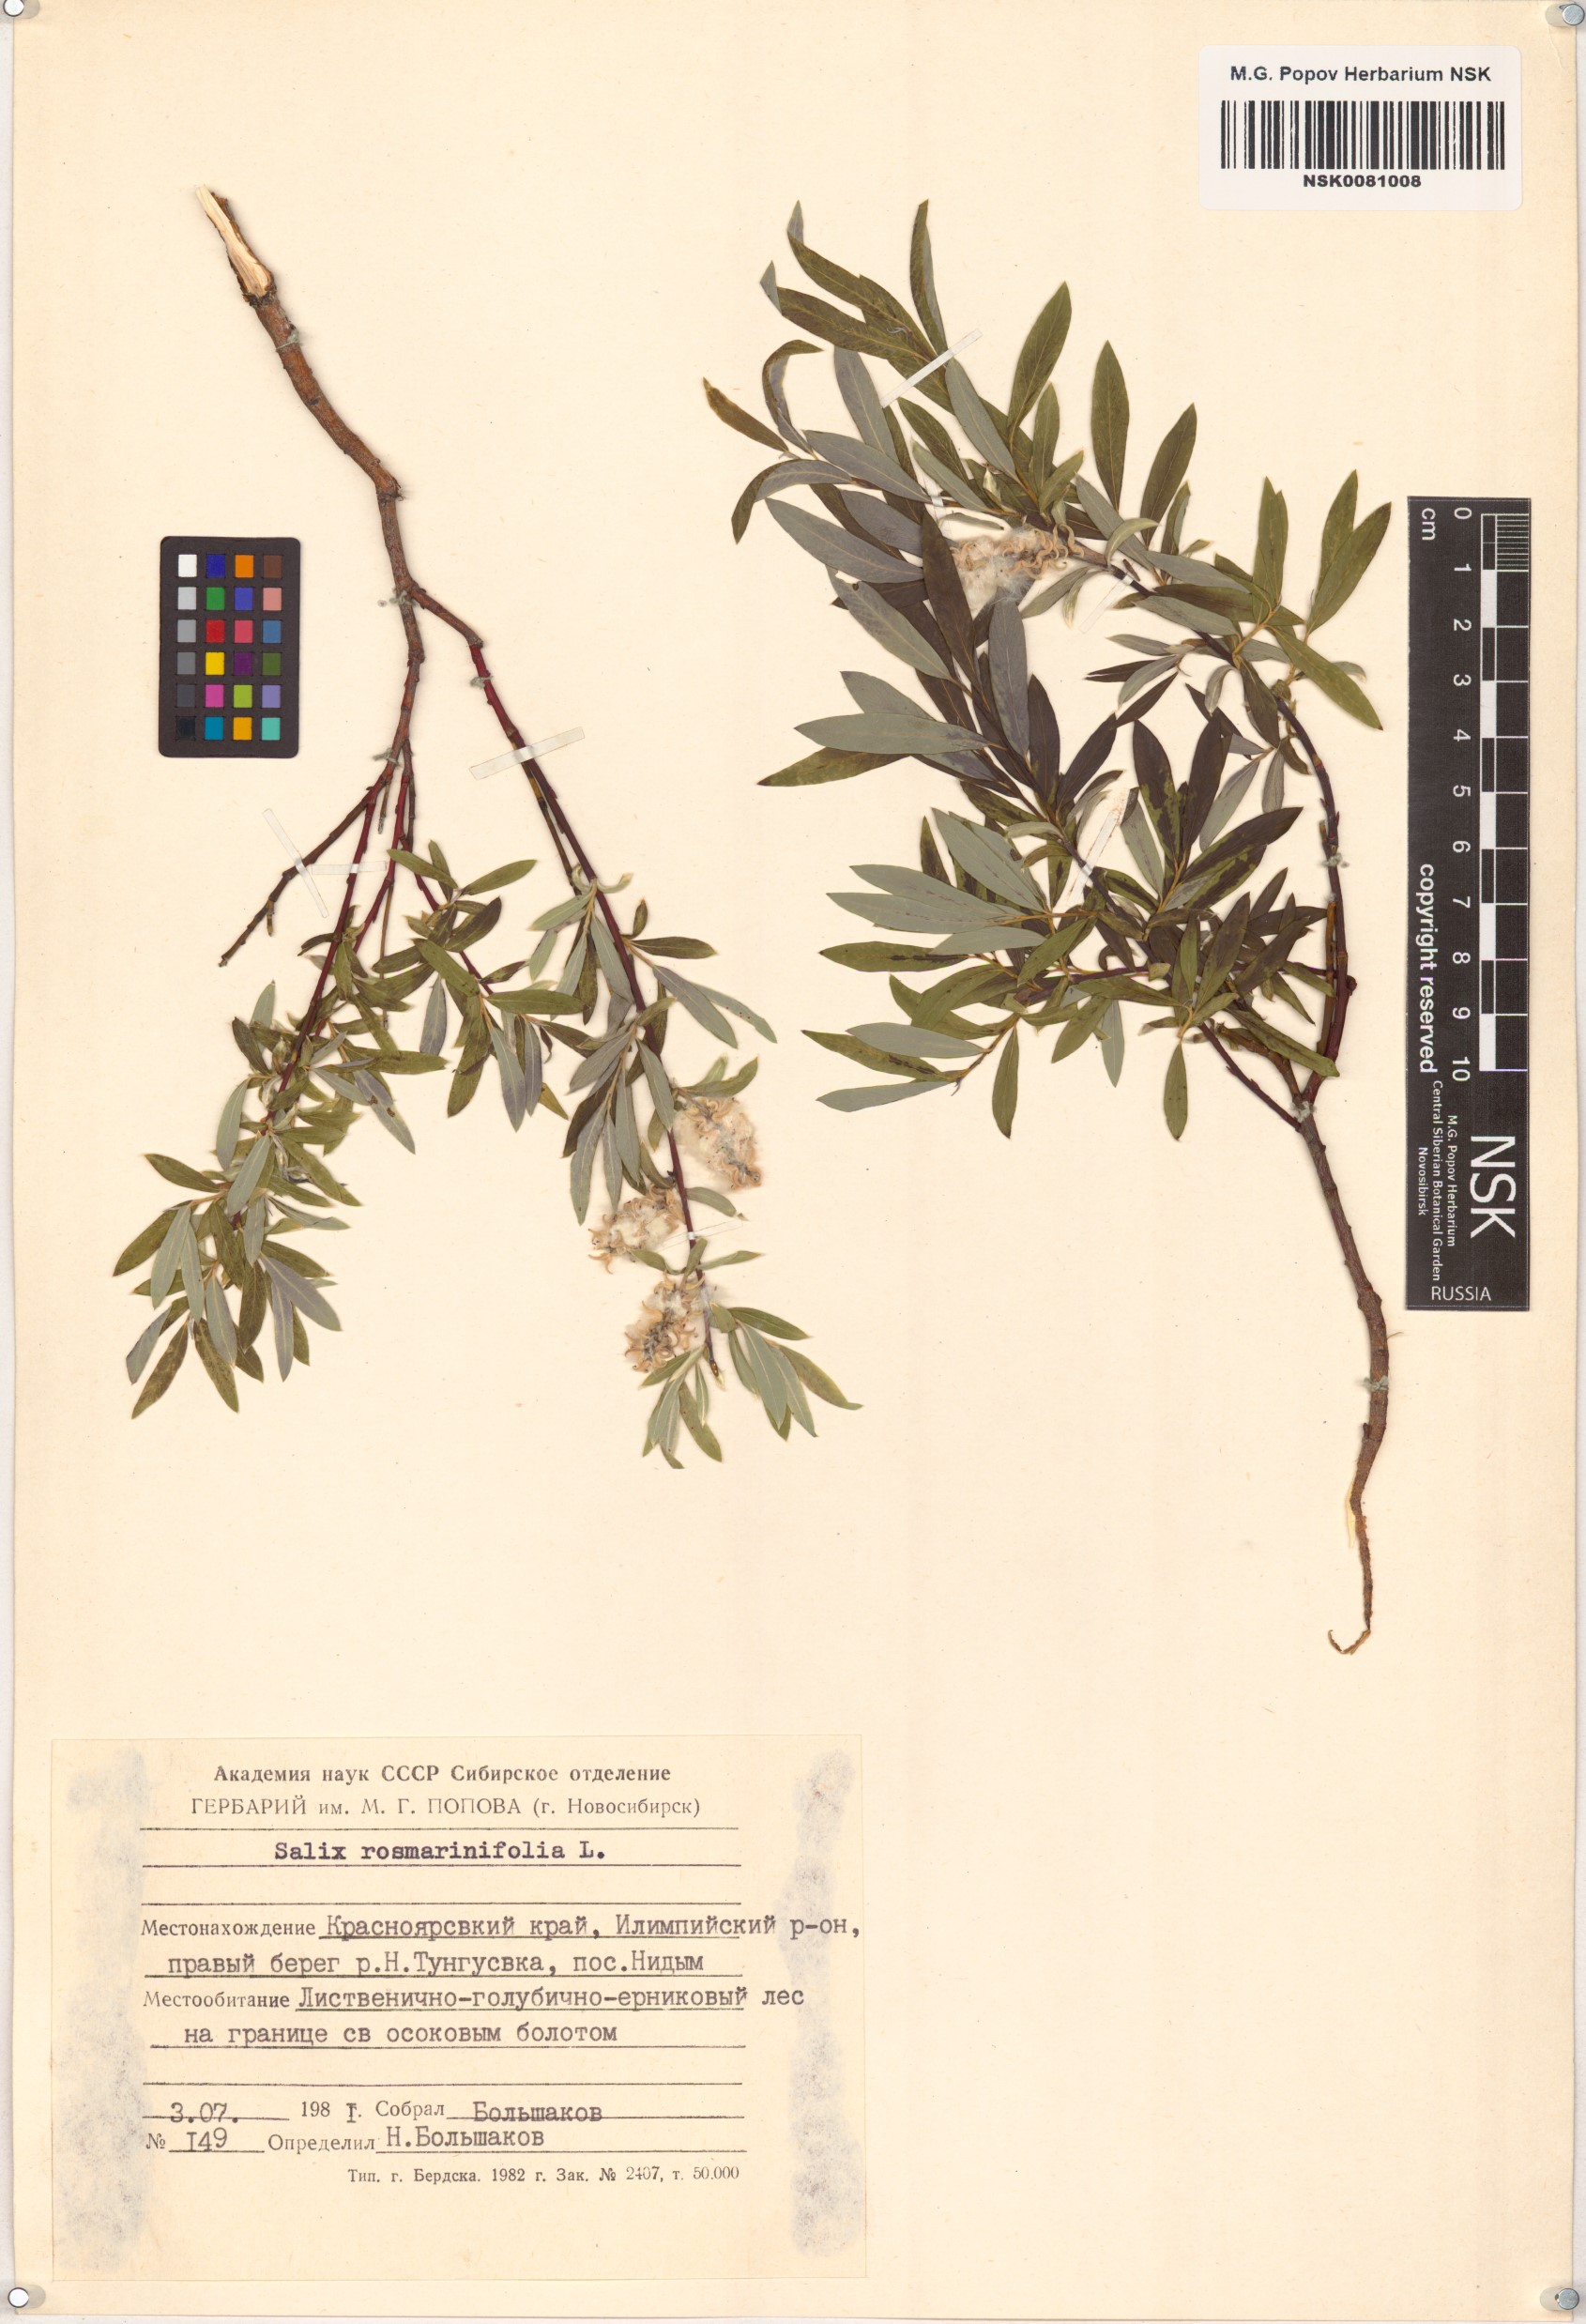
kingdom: Plantae
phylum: Tracheophyta
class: Magnoliopsida
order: Malpighiales
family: Salicaceae
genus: Salix
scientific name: Salix rosmarinifolia
